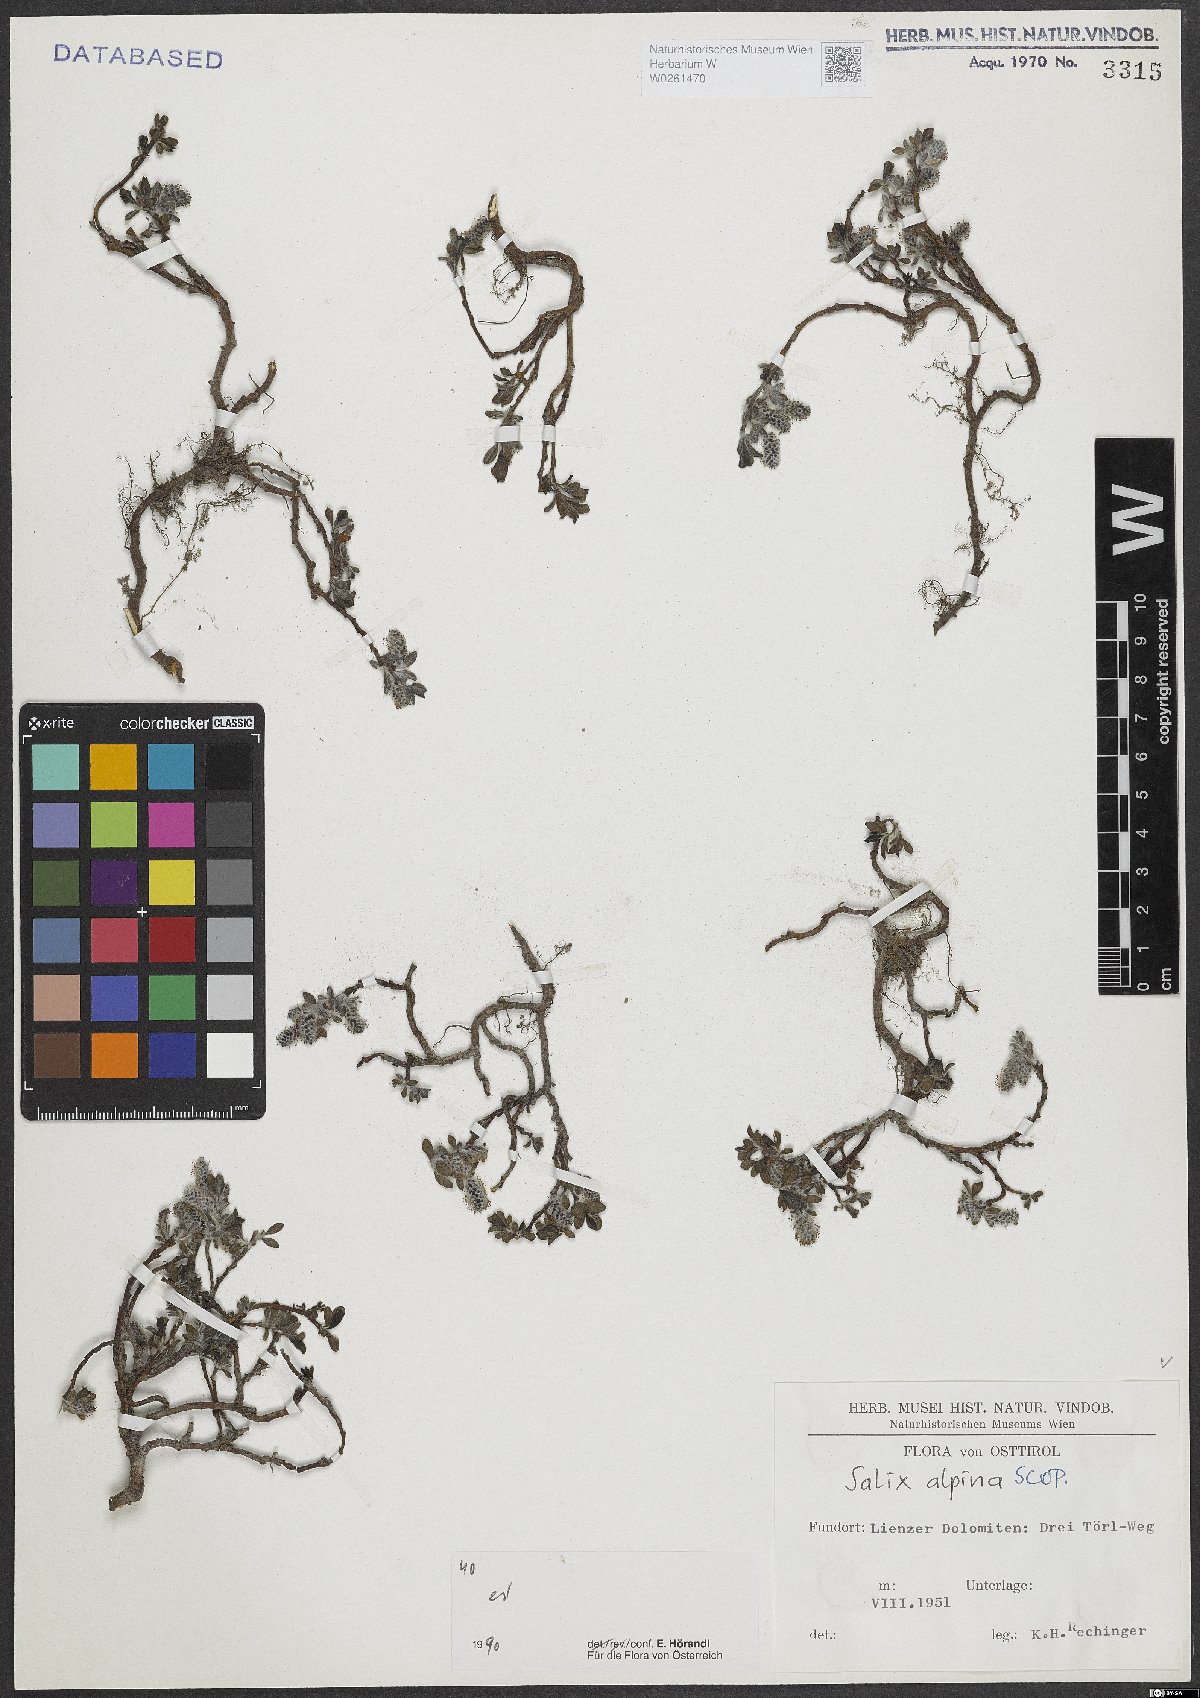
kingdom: Plantae
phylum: Tracheophyta
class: Magnoliopsida
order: Malpighiales
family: Salicaceae
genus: Salix
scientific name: Salix alpina
